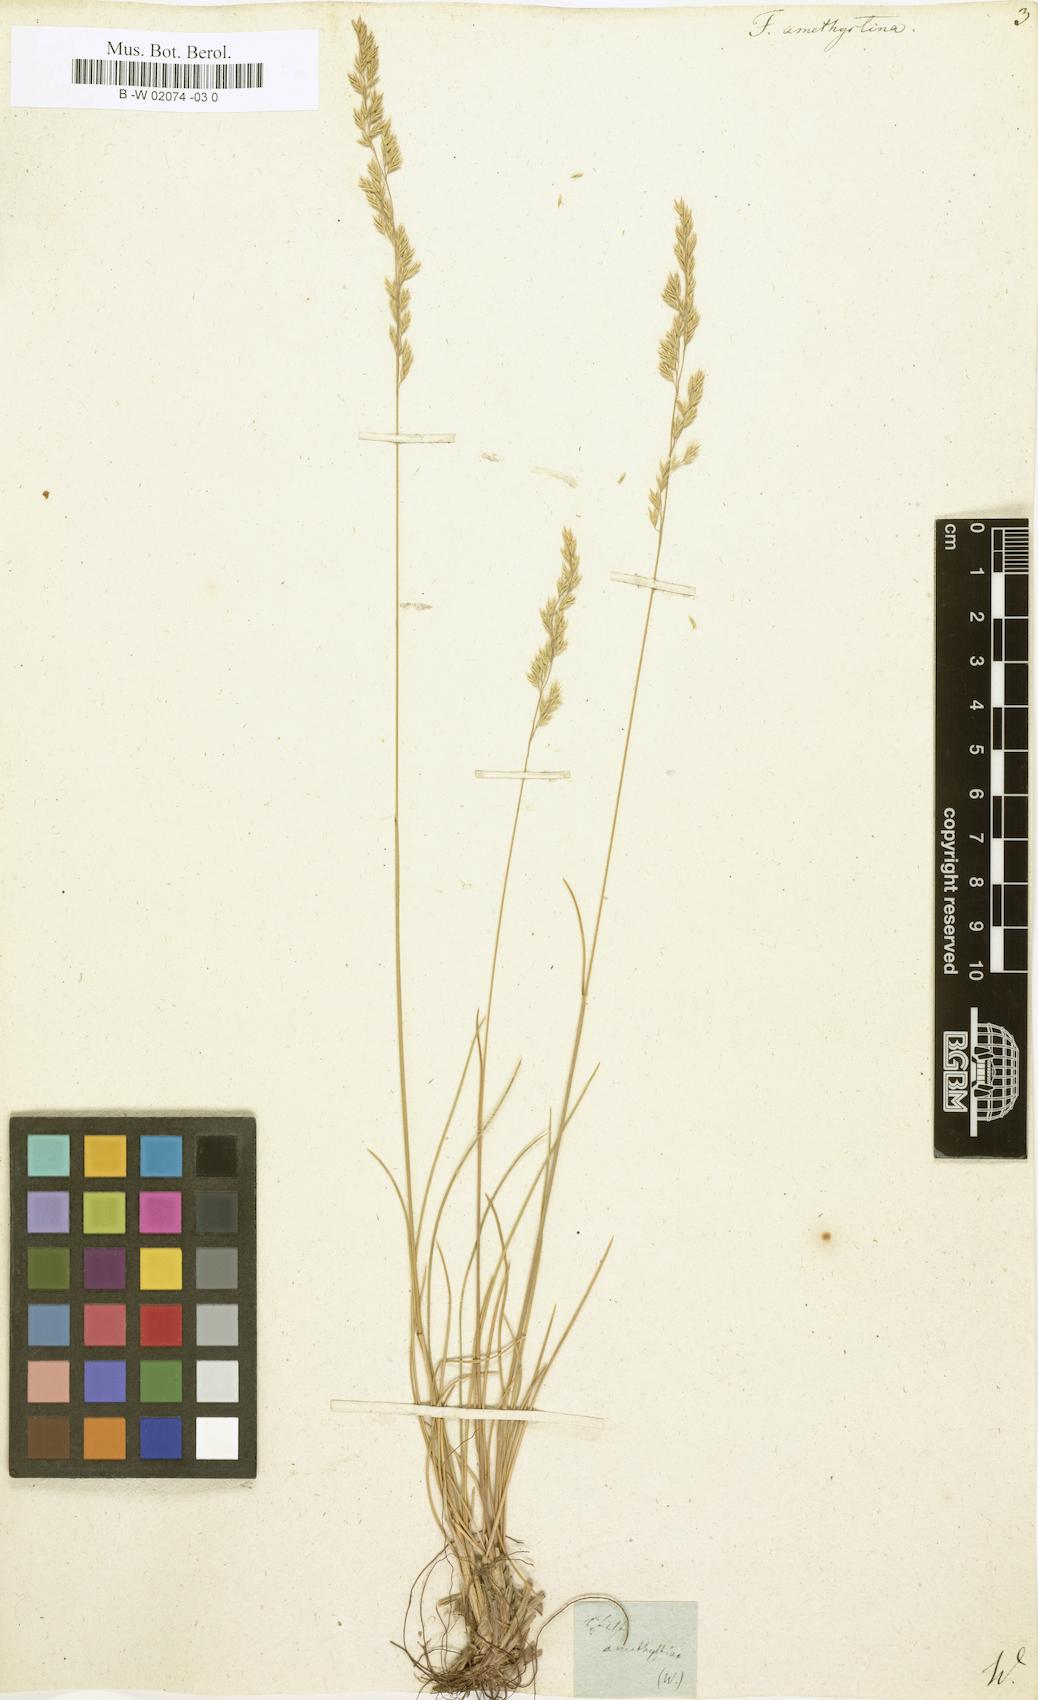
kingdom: Plantae
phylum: Tracheophyta
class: Liliopsida
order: Poales
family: Poaceae
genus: Festuca
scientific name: Festuca amethystina
